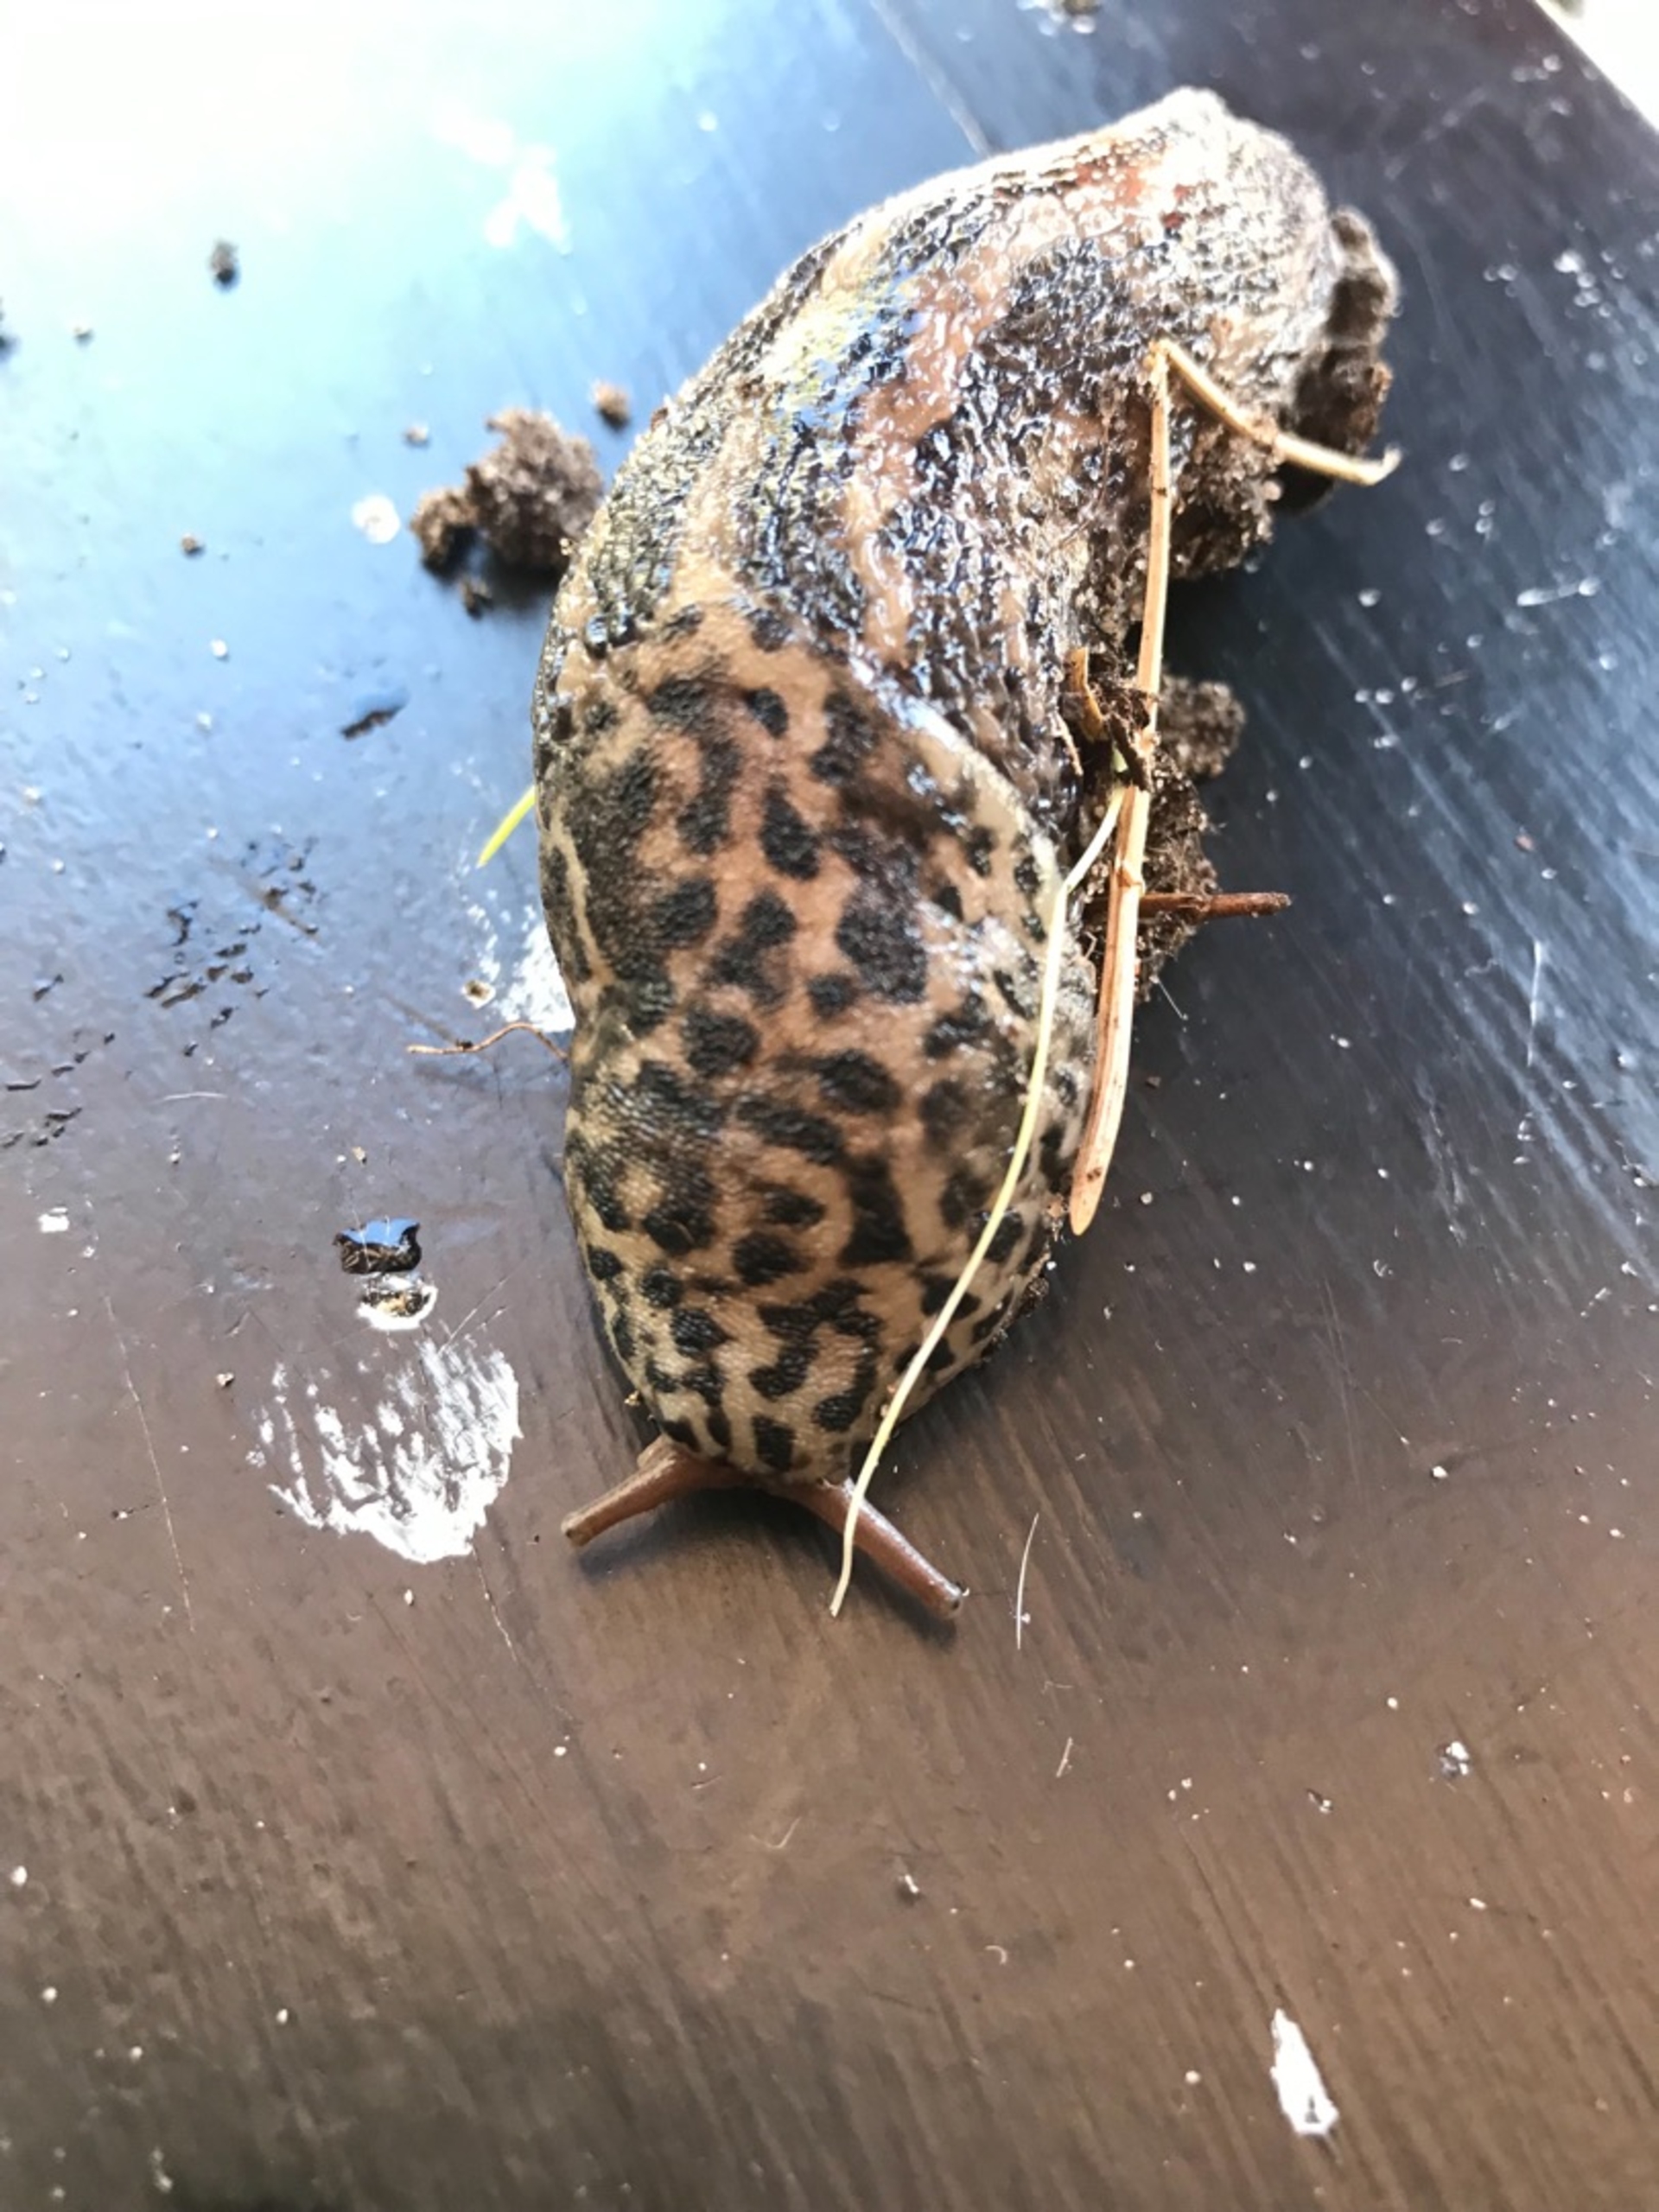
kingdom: Animalia
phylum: Mollusca
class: Gastropoda
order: Stylommatophora
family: Limacidae
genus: Limax
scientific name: Limax maximus
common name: Pantersnegl
